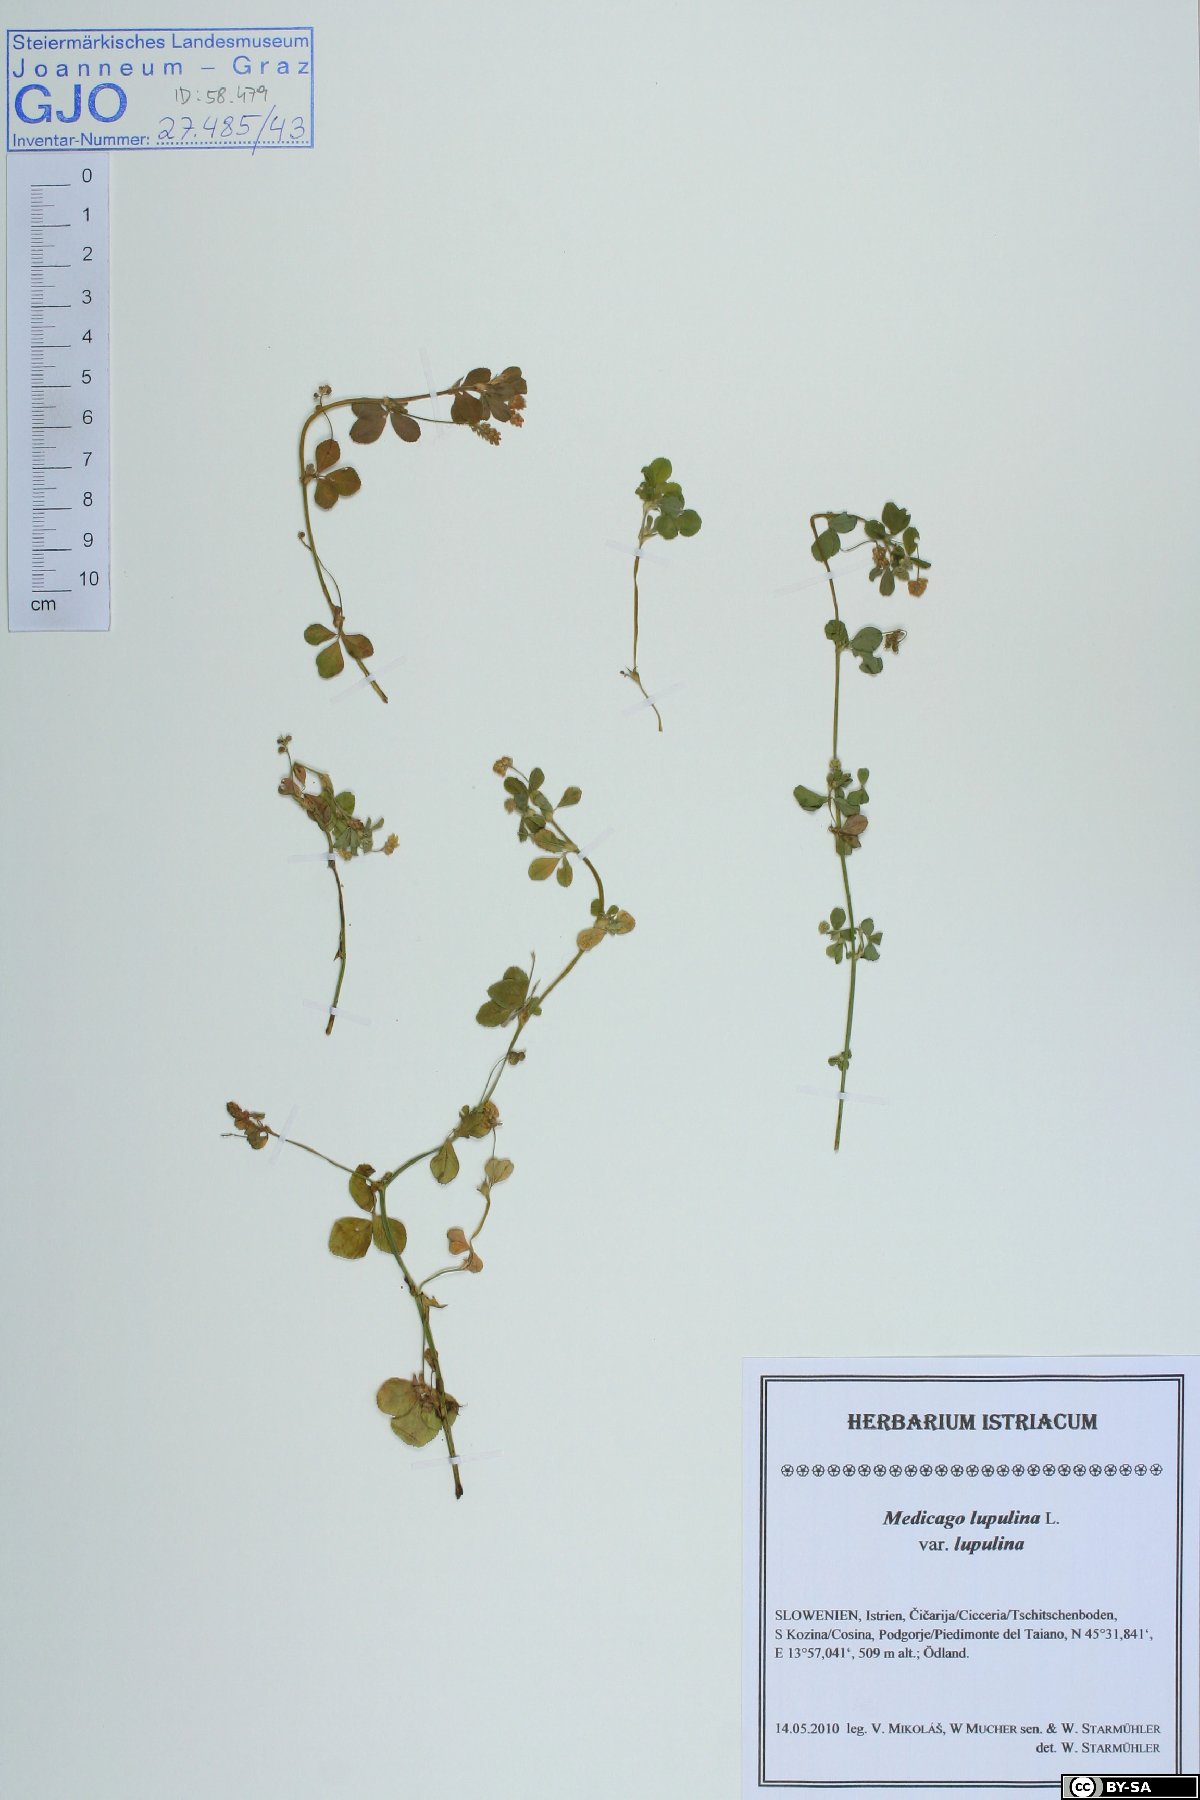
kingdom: Plantae
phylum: Tracheophyta
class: Magnoliopsida
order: Fabales
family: Fabaceae
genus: Medicago
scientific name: Medicago lupulina
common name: Black medick
